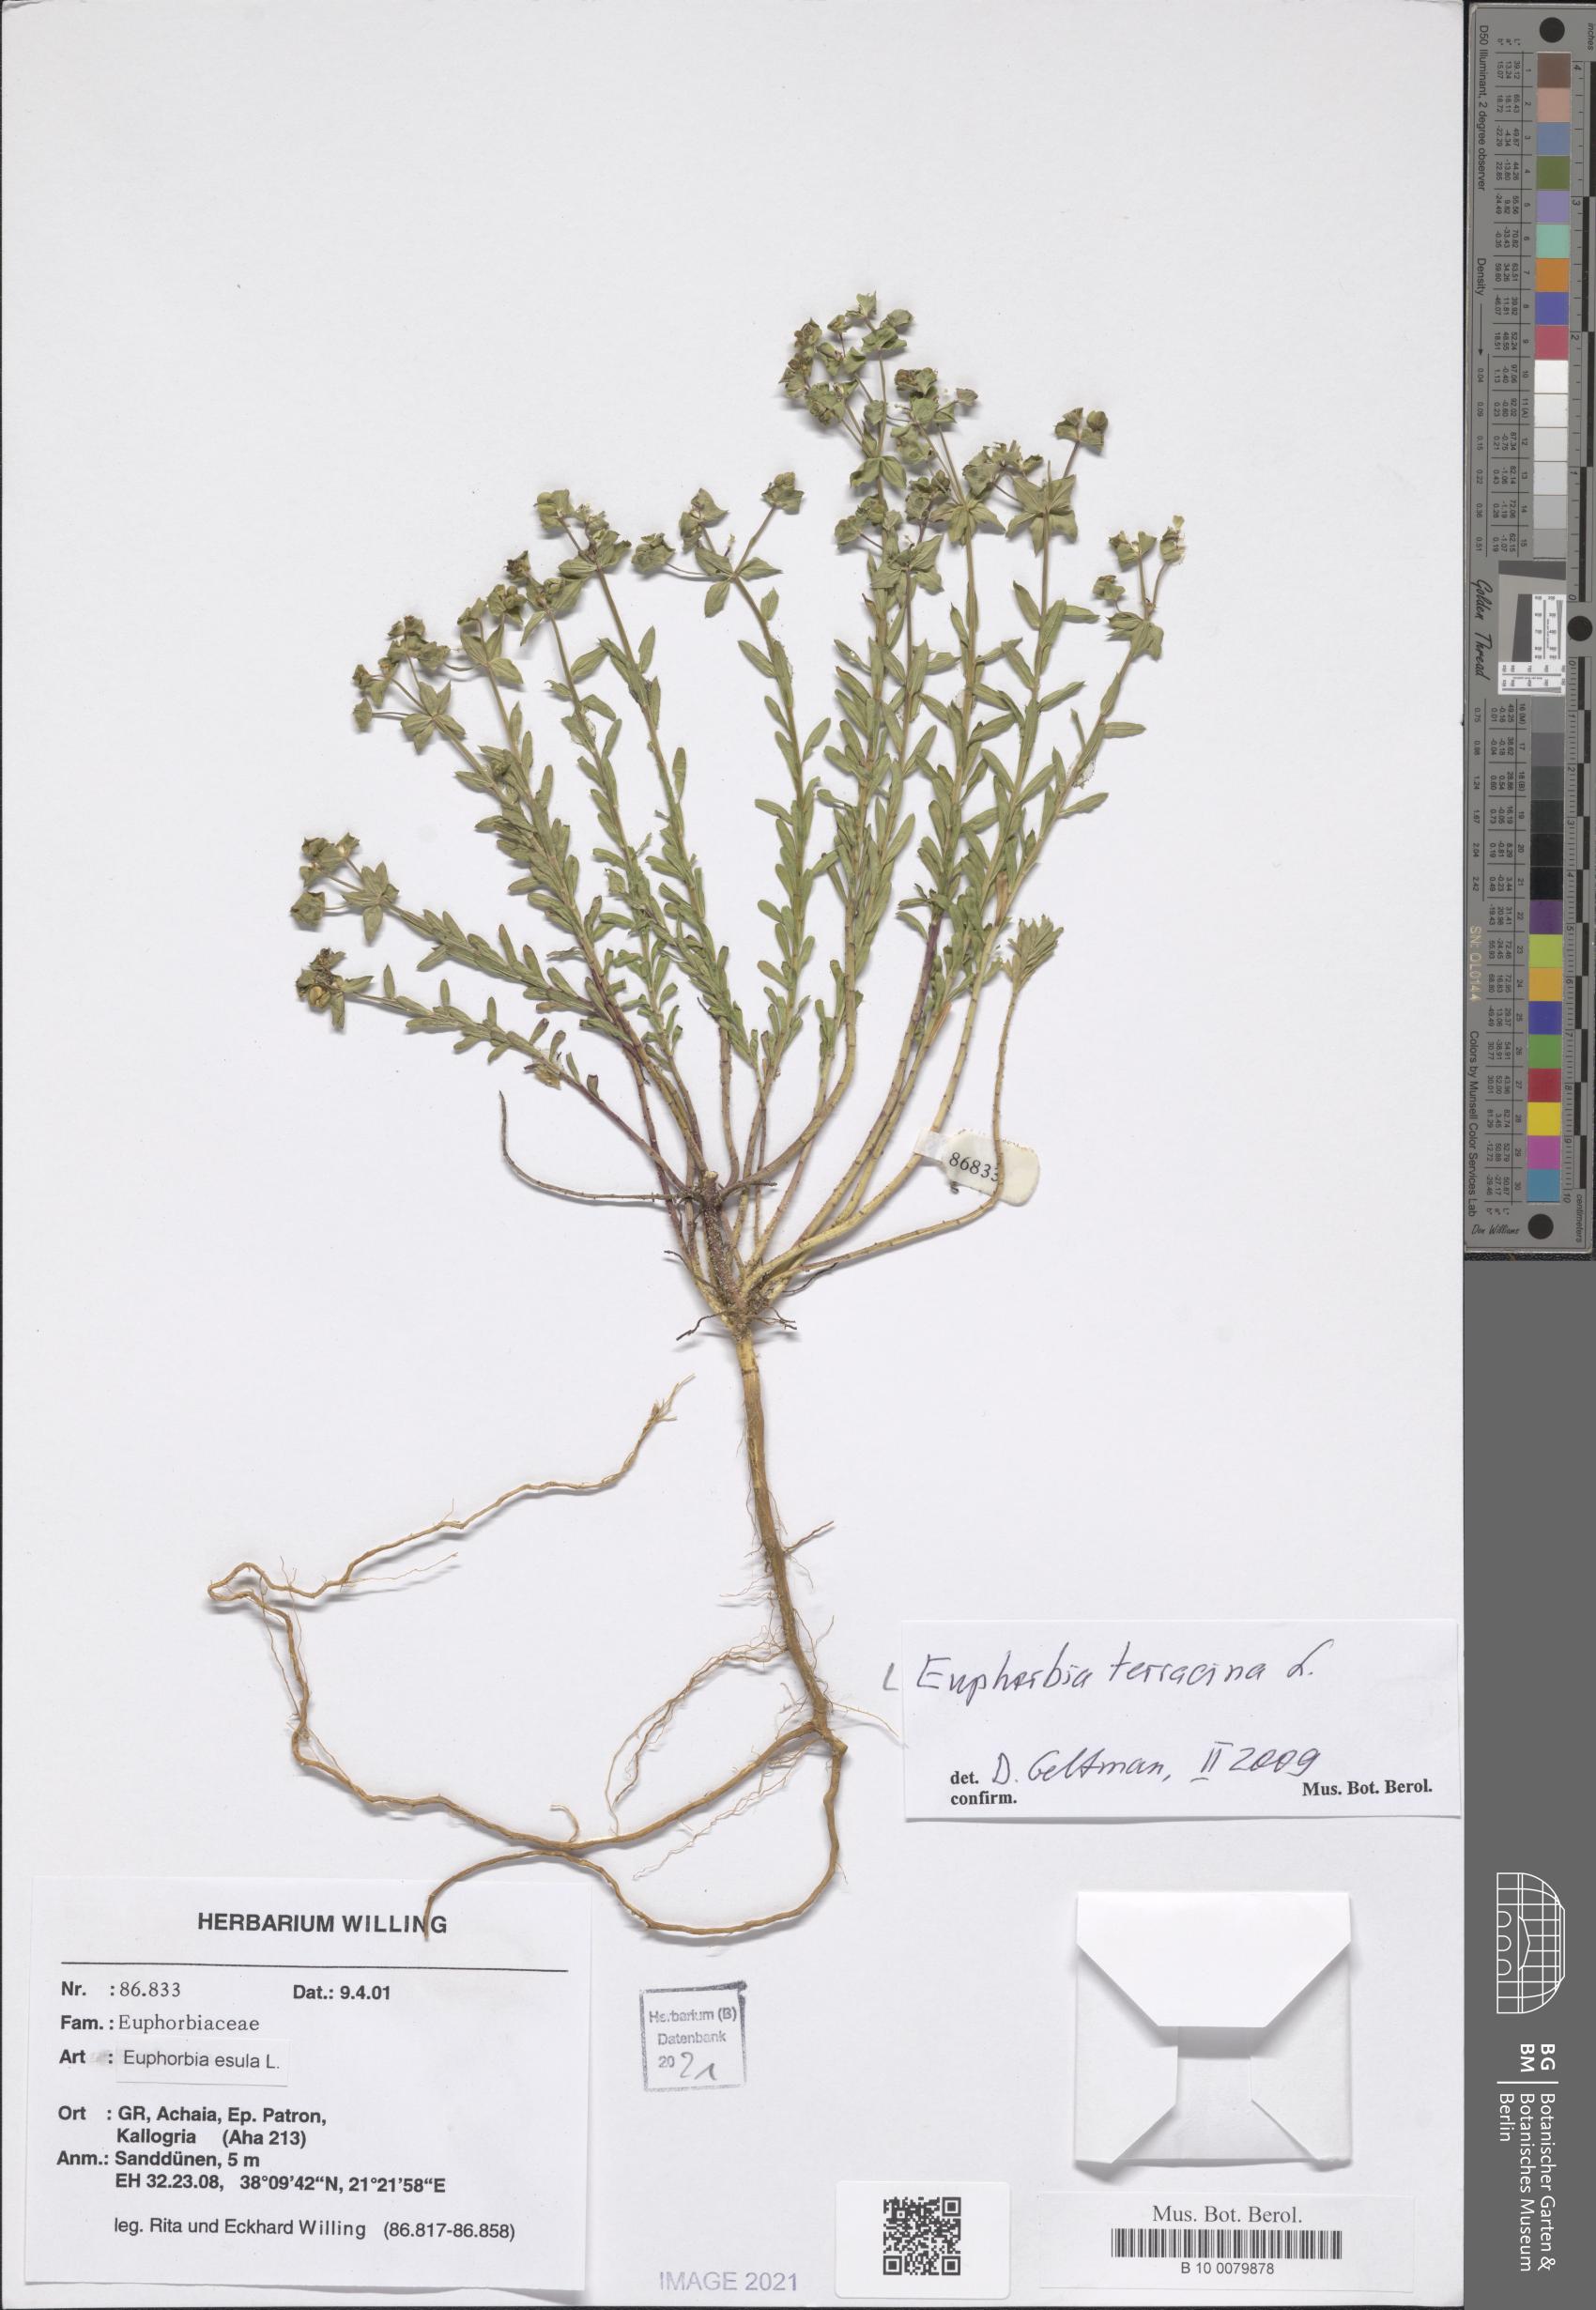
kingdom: Plantae
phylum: Tracheophyta
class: Magnoliopsida
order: Malpighiales
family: Euphorbiaceae
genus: Euphorbia
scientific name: Euphorbia terracina
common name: Geraldton carnation weed
